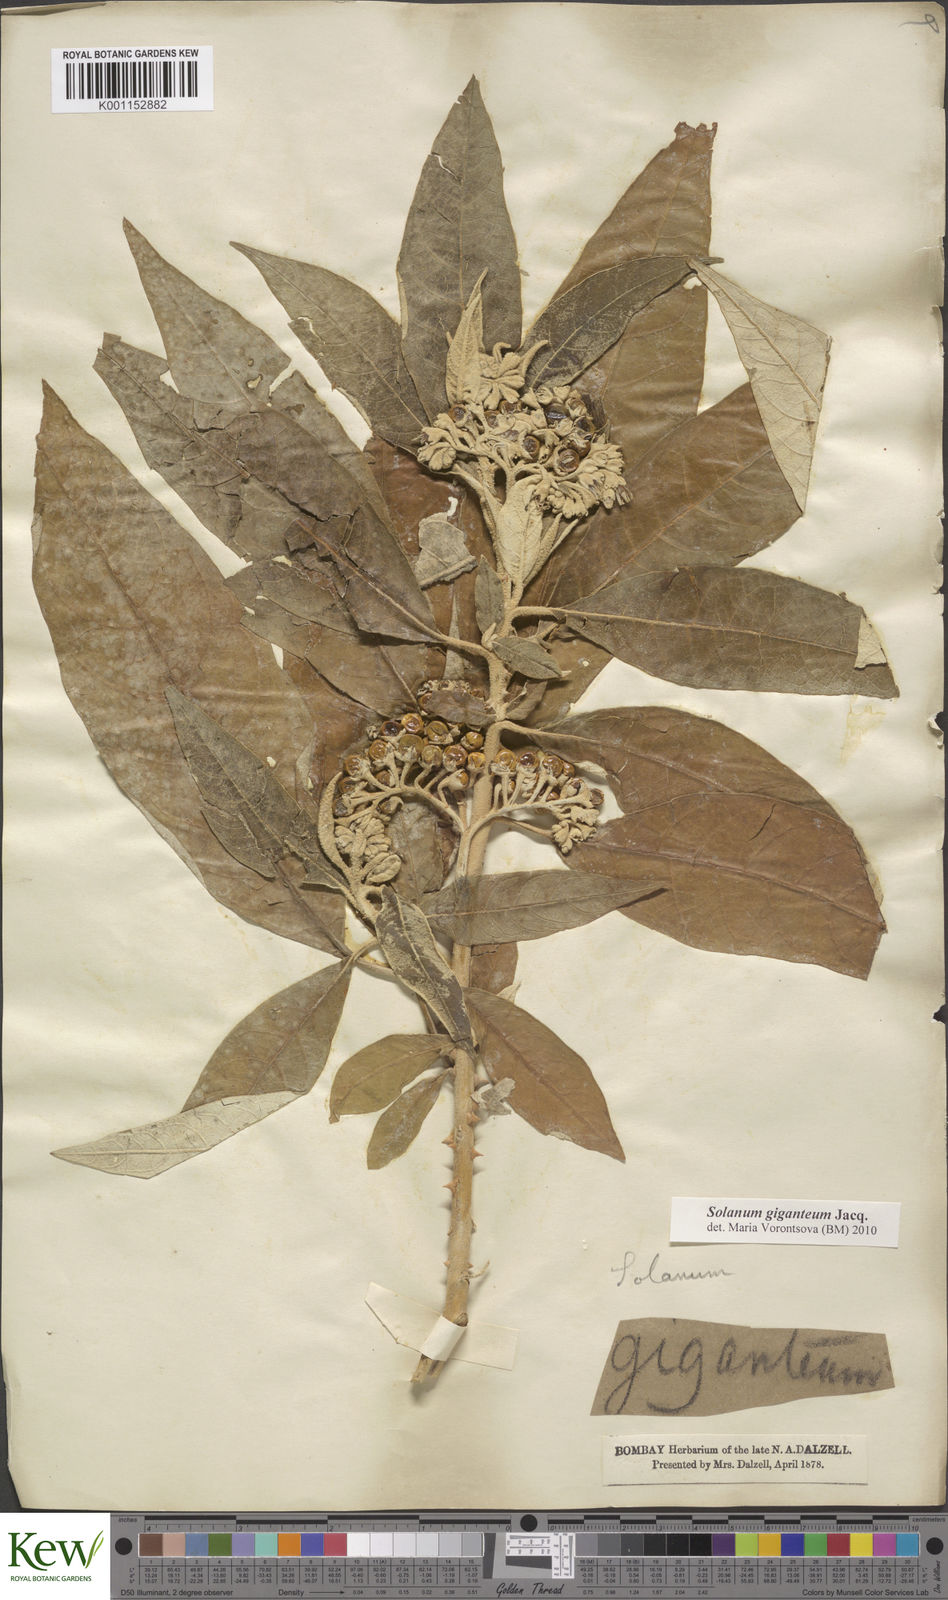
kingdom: Plantae
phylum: Tracheophyta
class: Magnoliopsida
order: Solanales
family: Solanaceae
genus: Solanum
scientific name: Solanum giganteum
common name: Healing-leaf-tree
